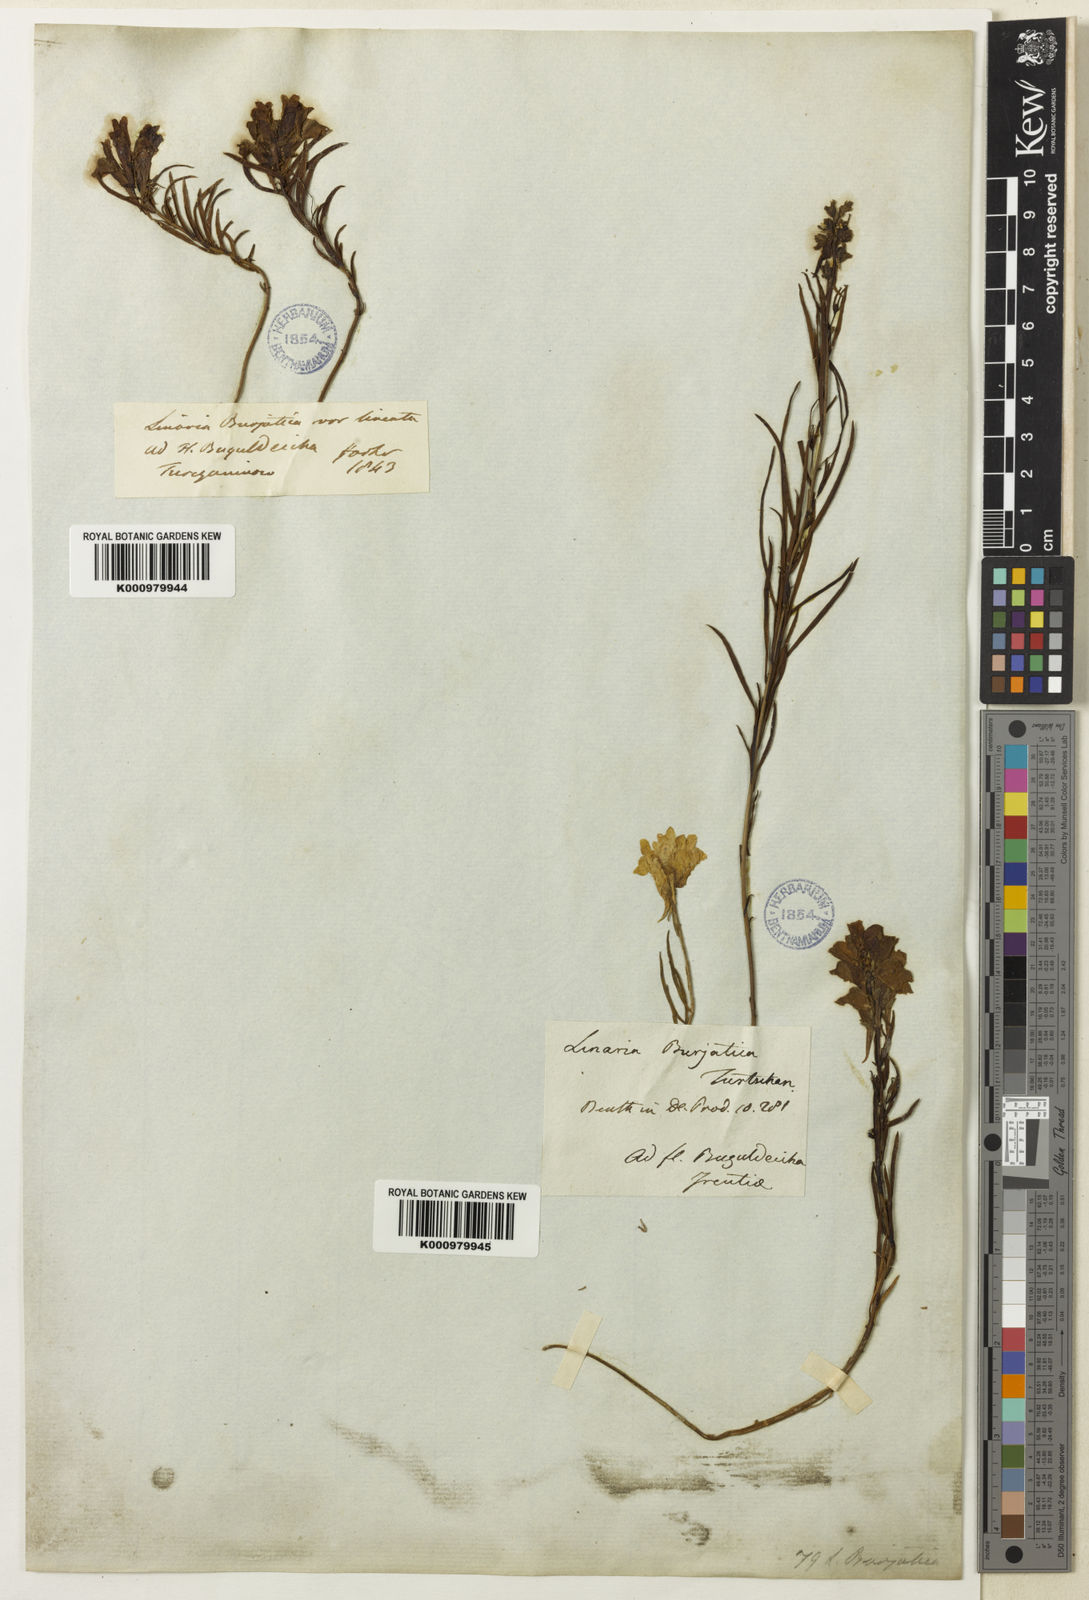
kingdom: Plantae
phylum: Tracheophyta
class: Magnoliopsida
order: Lamiales
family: Plantaginaceae
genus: Linaria
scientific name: Linaria
